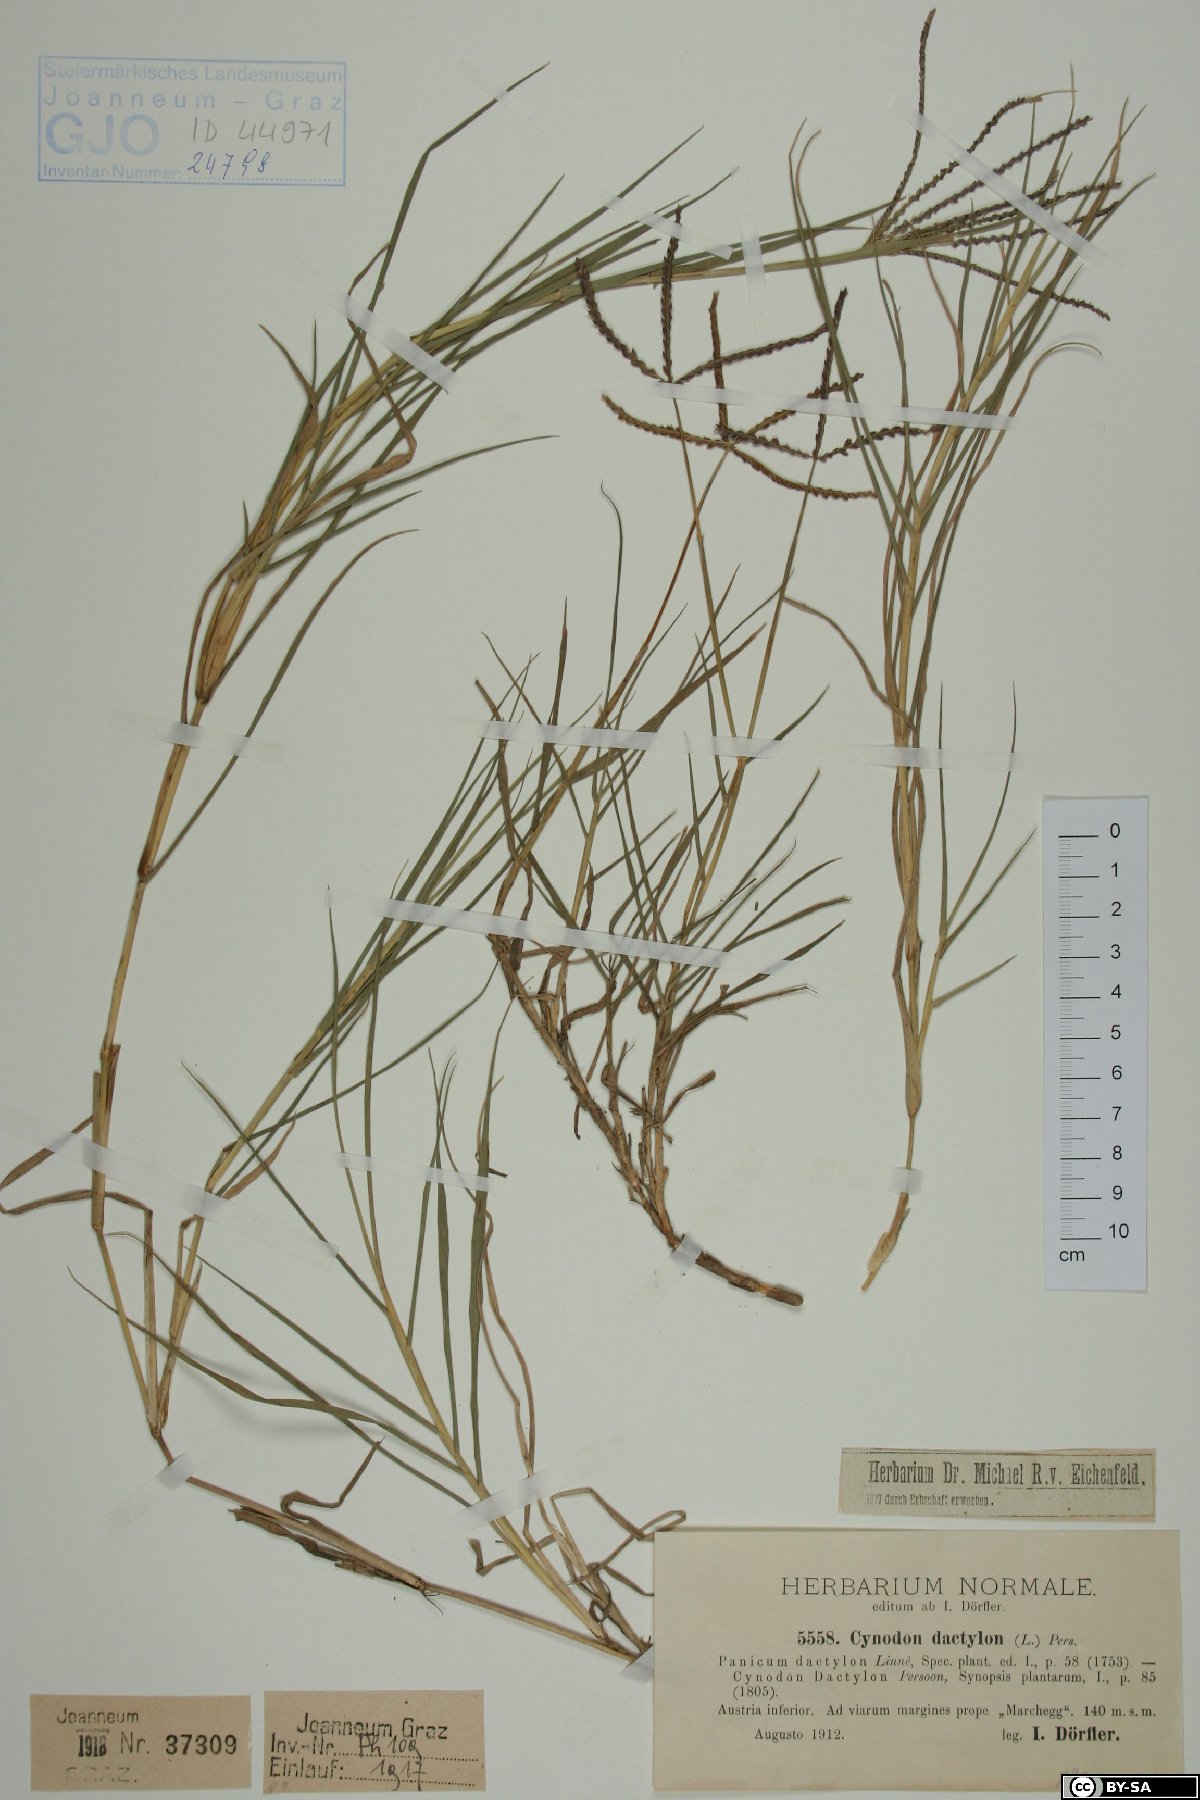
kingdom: Plantae
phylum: Tracheophyta
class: Liliopsida
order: Poales
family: Poaceae
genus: Cynodon
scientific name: Cynodon dactylon
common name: Bermuda grass
